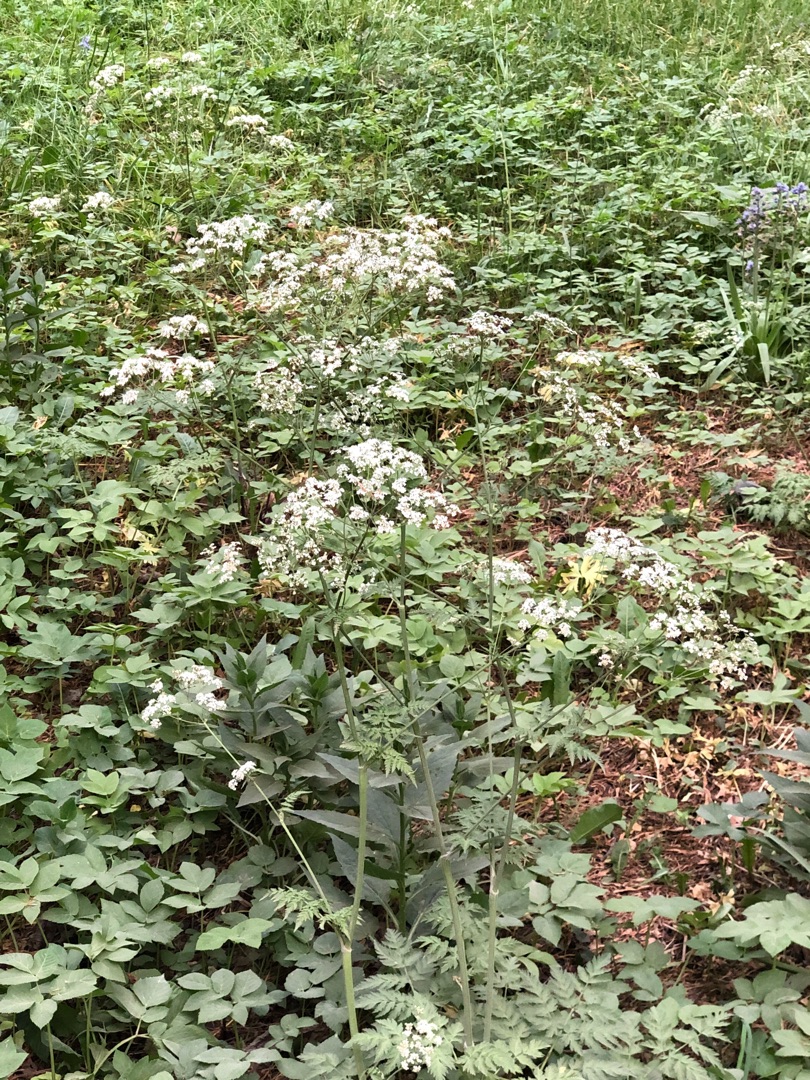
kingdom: Plantae
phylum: Tracheophyta
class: Magnoliopsida
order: Apiales
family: Apiaceae
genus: Aegopodium
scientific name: Aegopodium podagraria
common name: Skvalderkål
